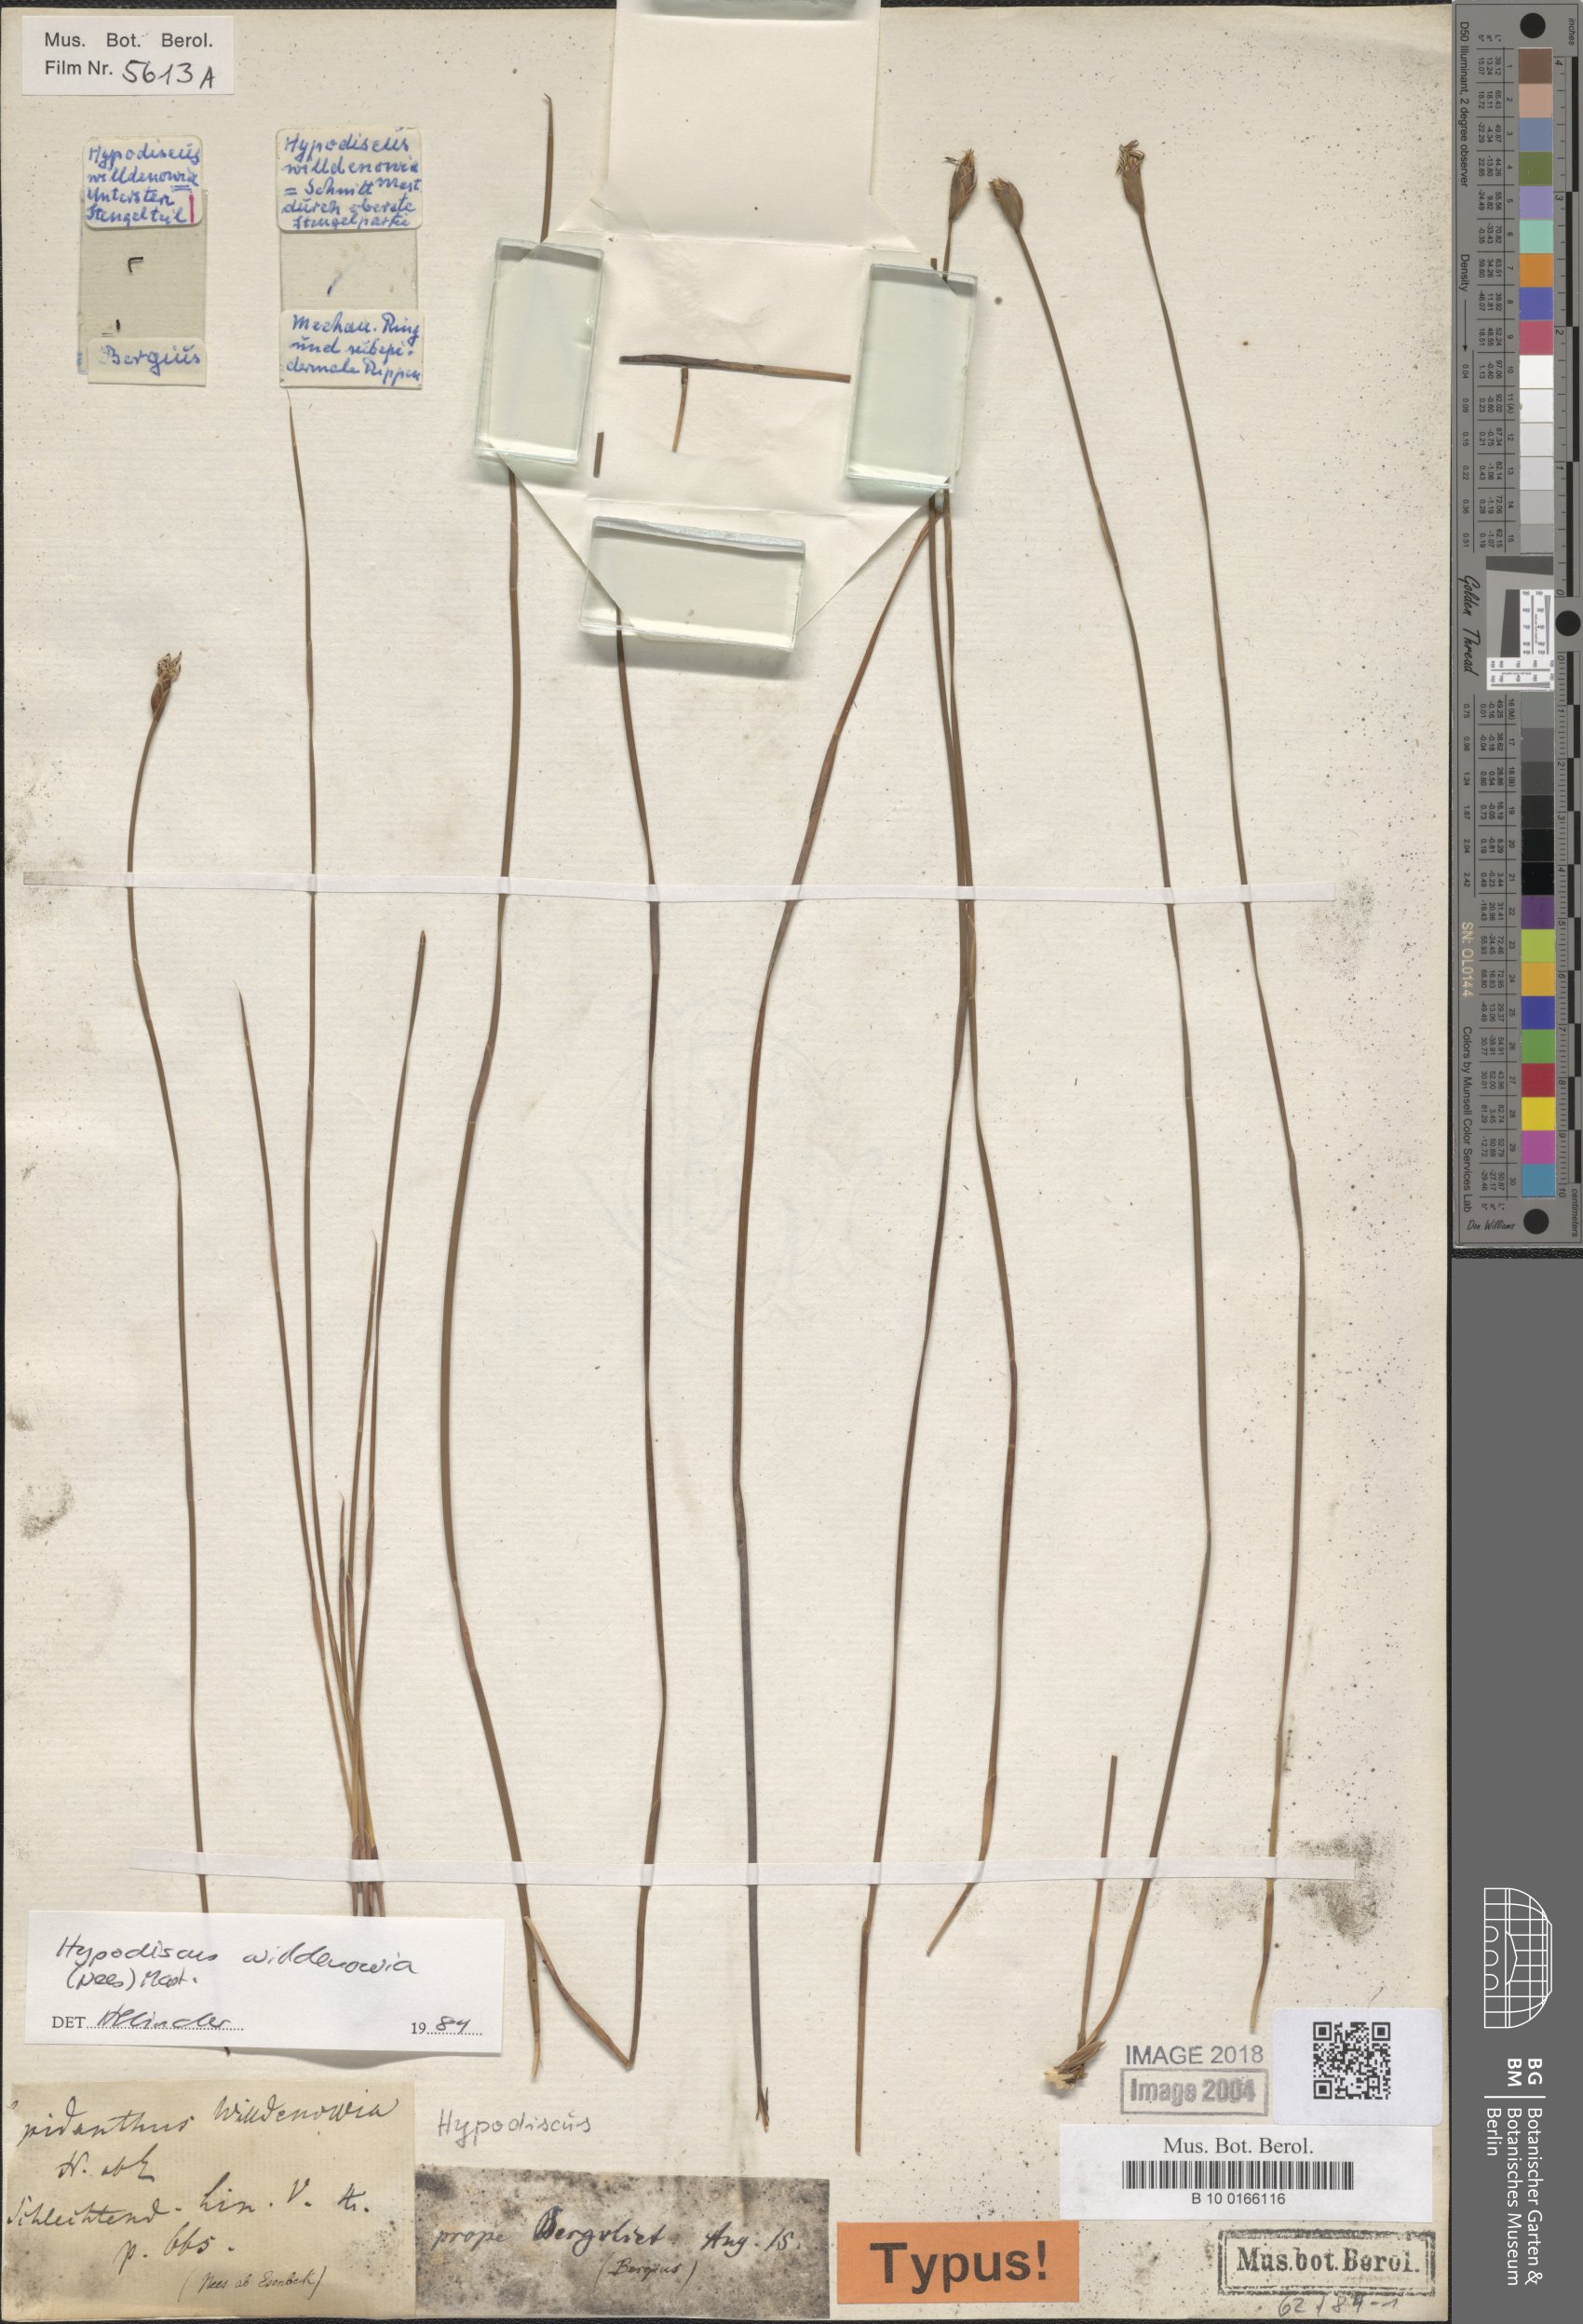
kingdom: Plantae
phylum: Tracheophyta
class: Liliopsida
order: Poales
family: Restionaceae
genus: Hypodiscus
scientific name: Hypodiscus willdenowia
